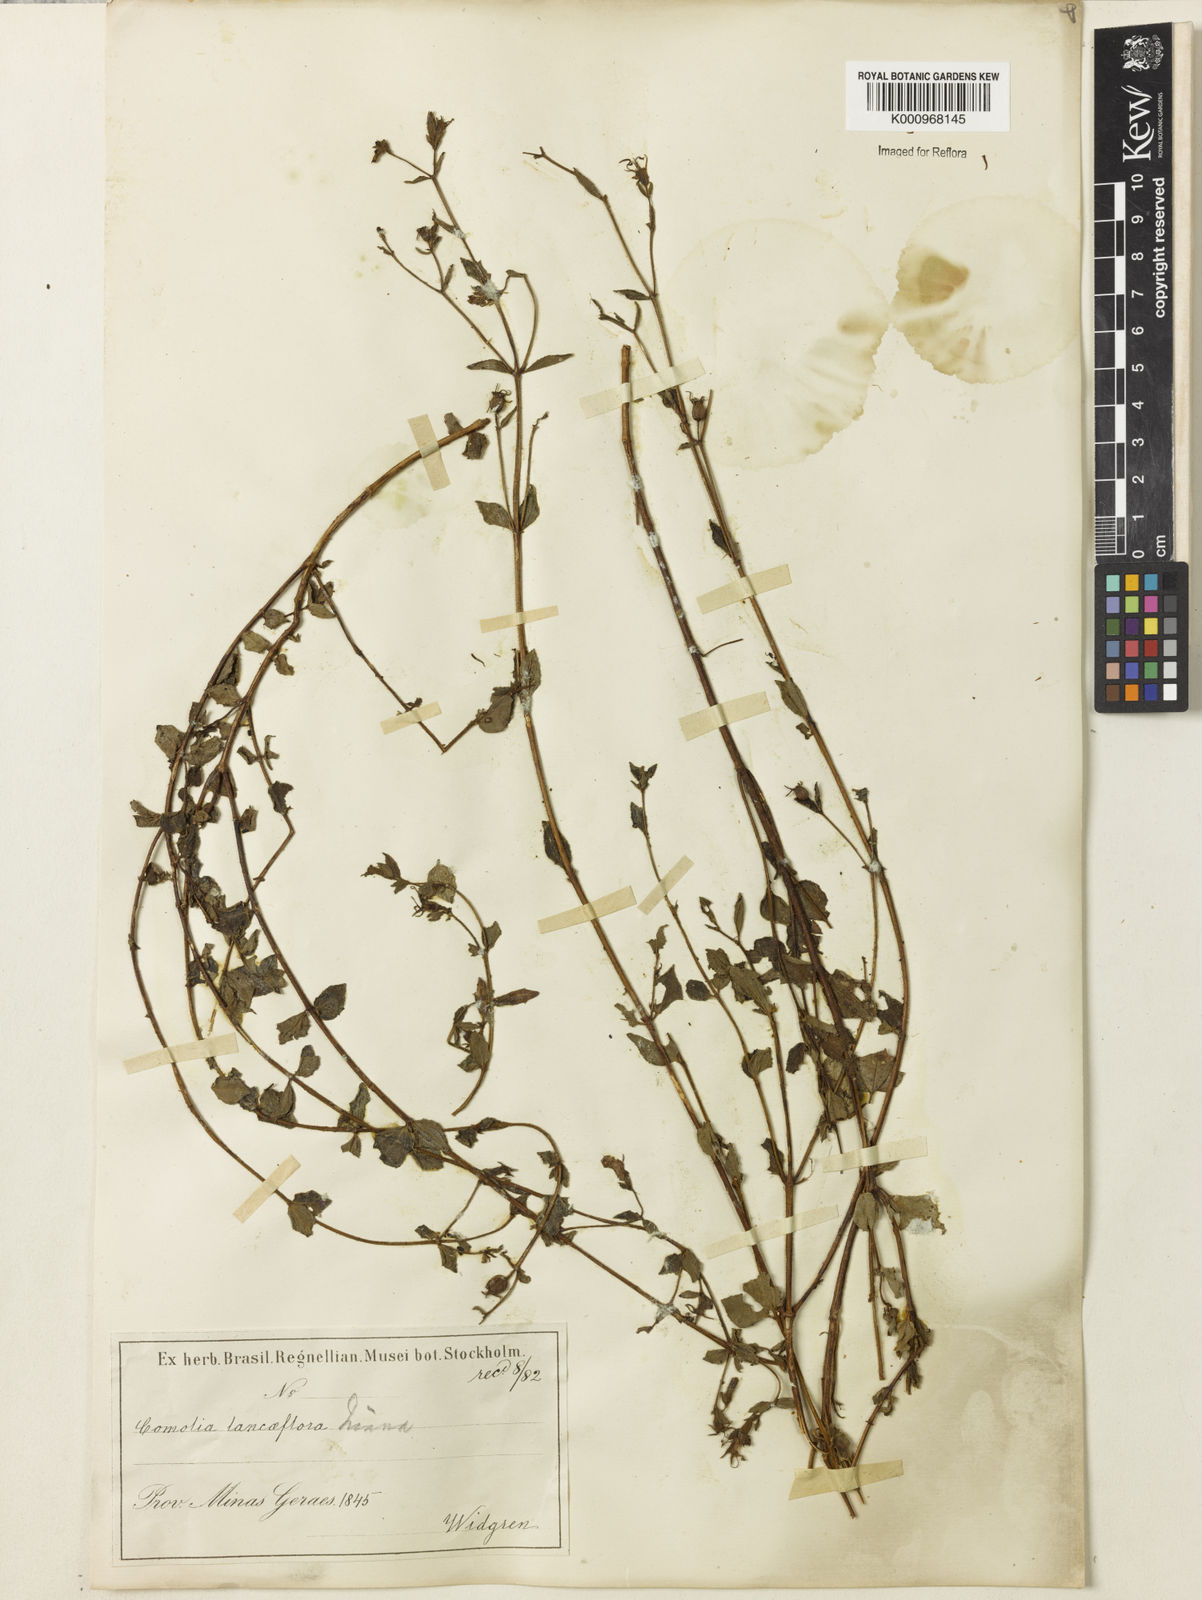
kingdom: Plantae
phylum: Tracheophyta
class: Magnoliopsida
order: Myrtales
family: Melastomataceae
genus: Fritzschia
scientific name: Fritzschia lanceiflora
